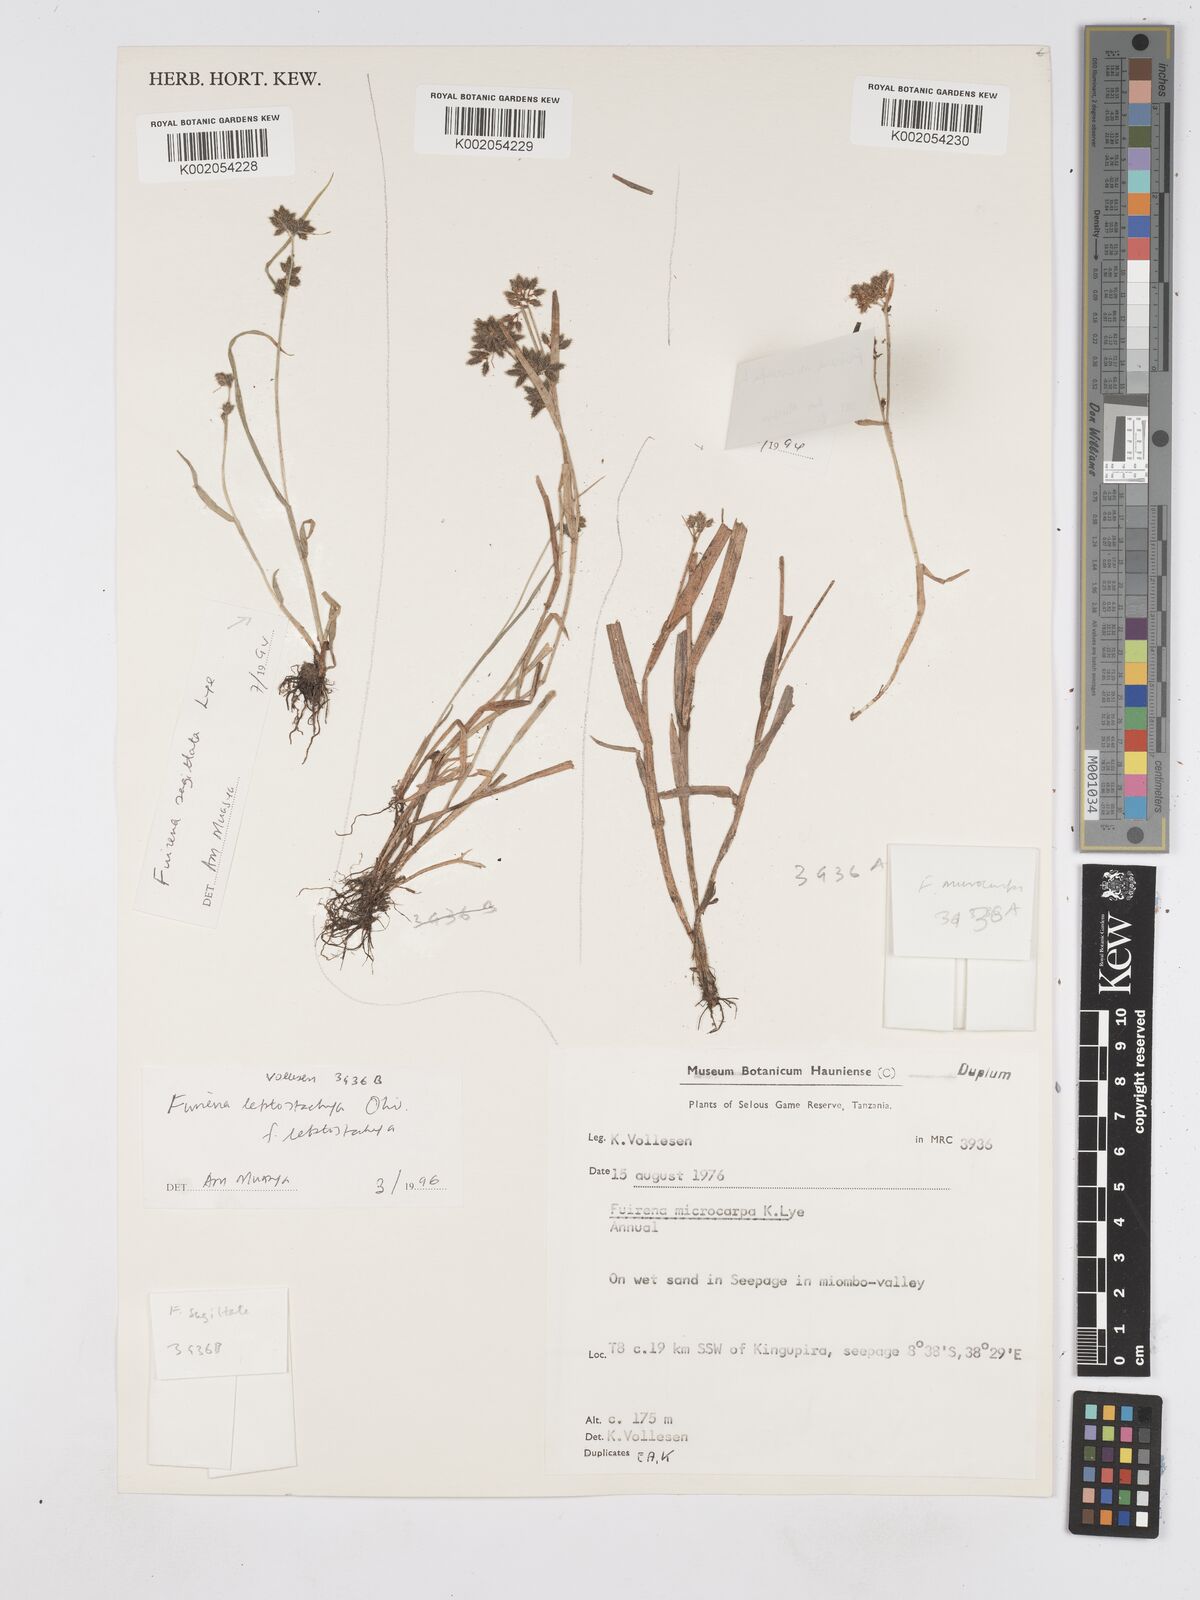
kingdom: Plantae
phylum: Tracheophyta
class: Liliopsida
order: Poales
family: Cyperaceae
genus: Fuirena
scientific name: Fuirena microcarpa
